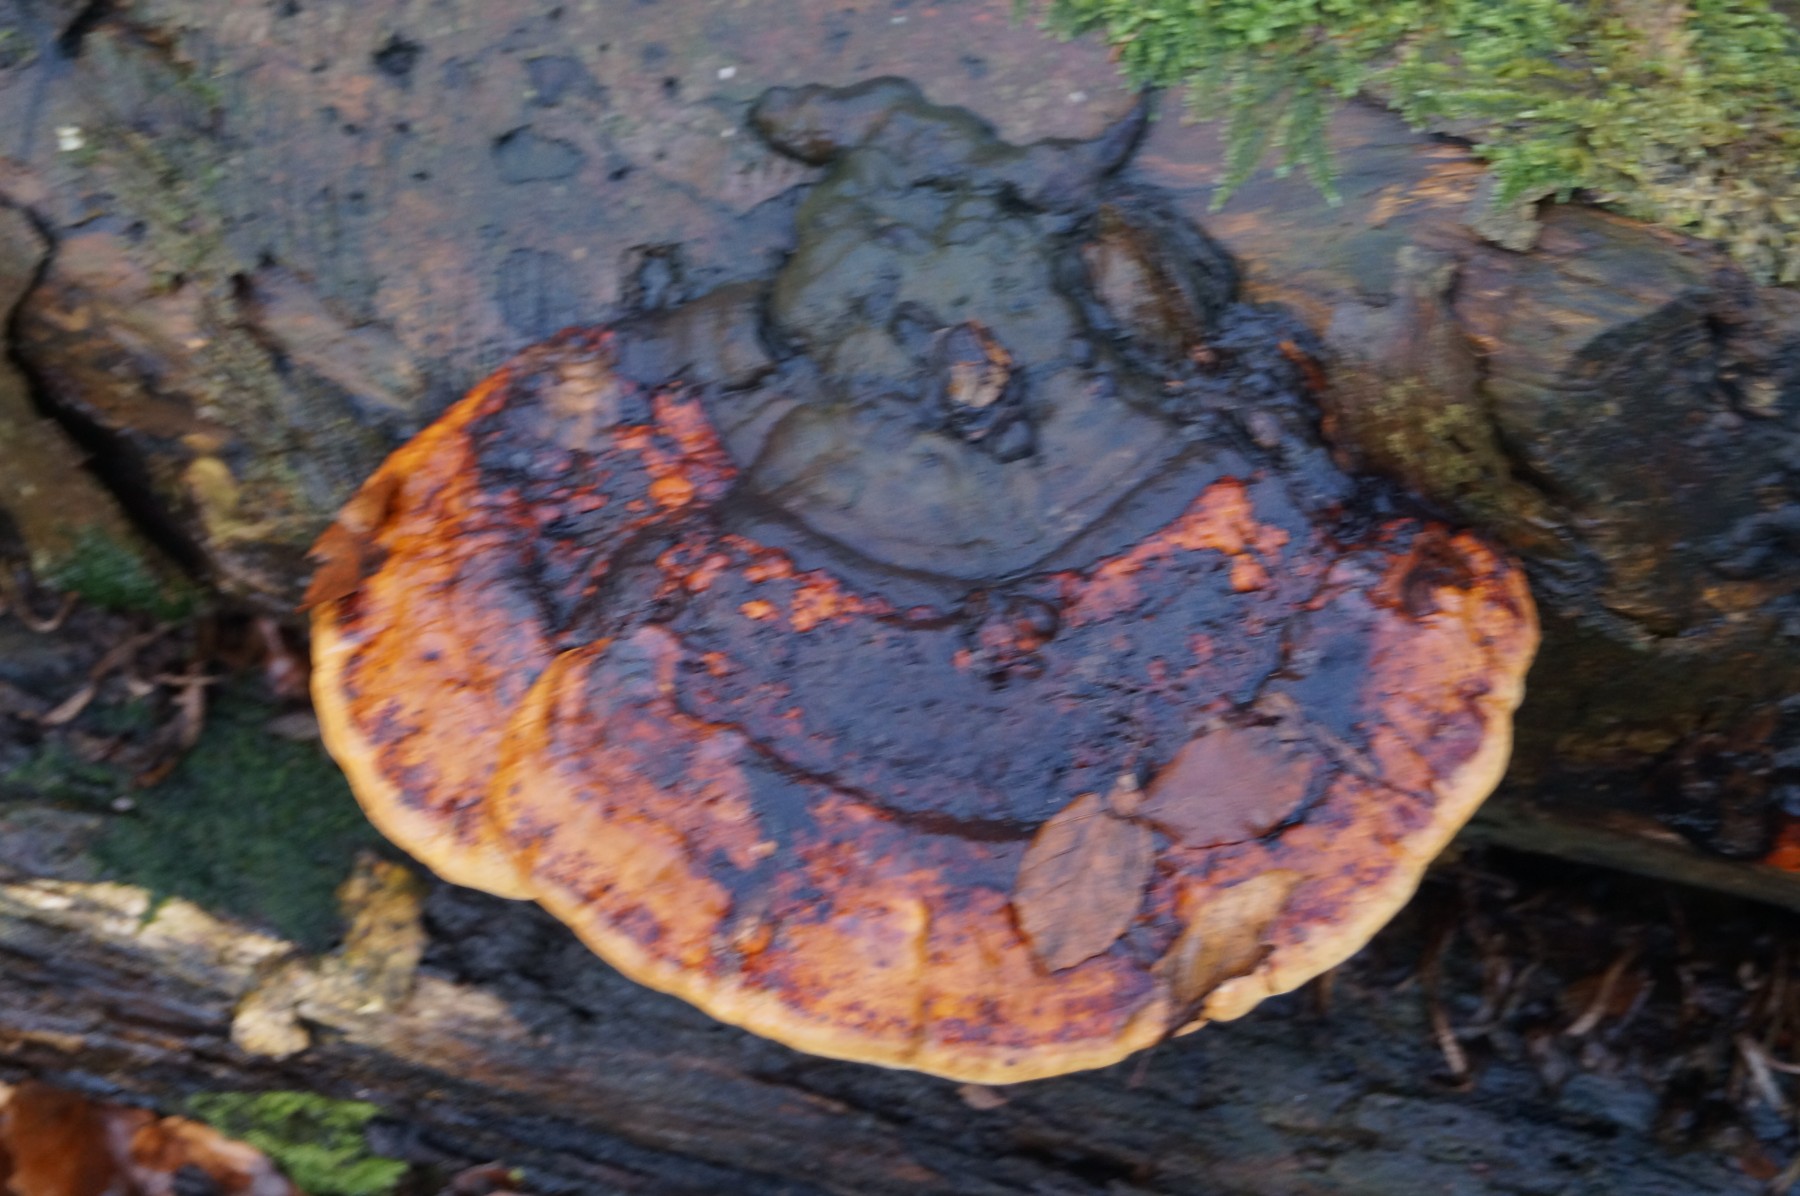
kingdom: Fungi
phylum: Basidiomycota
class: Agaricomycetes
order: Polyporales
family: Fomitopsidaceae
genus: Fomitopsis
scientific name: Fomitopsis pinicola
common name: randbæltet hovporesvamp
